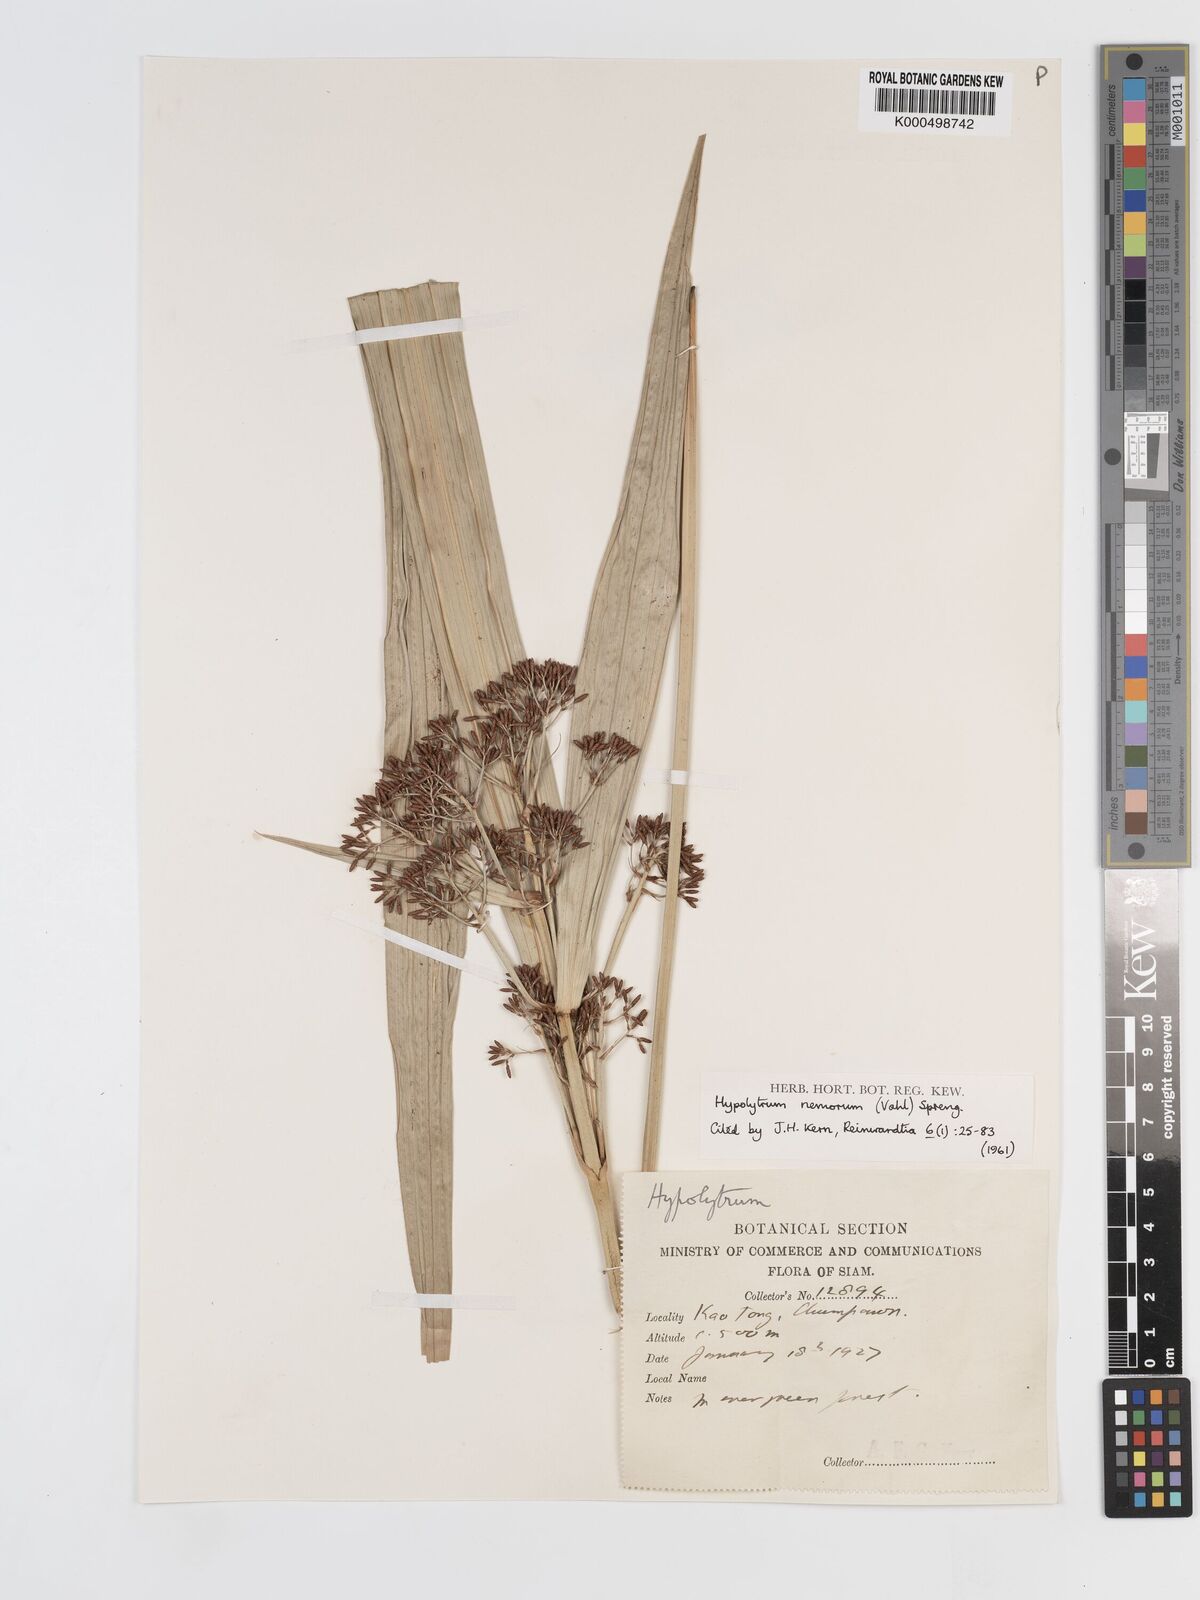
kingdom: Plantae
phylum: Tracheophyta
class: Liliopsida
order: Poales
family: Cyperaceae
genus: Hypolytrum
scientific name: Hypolytrum nemorum
